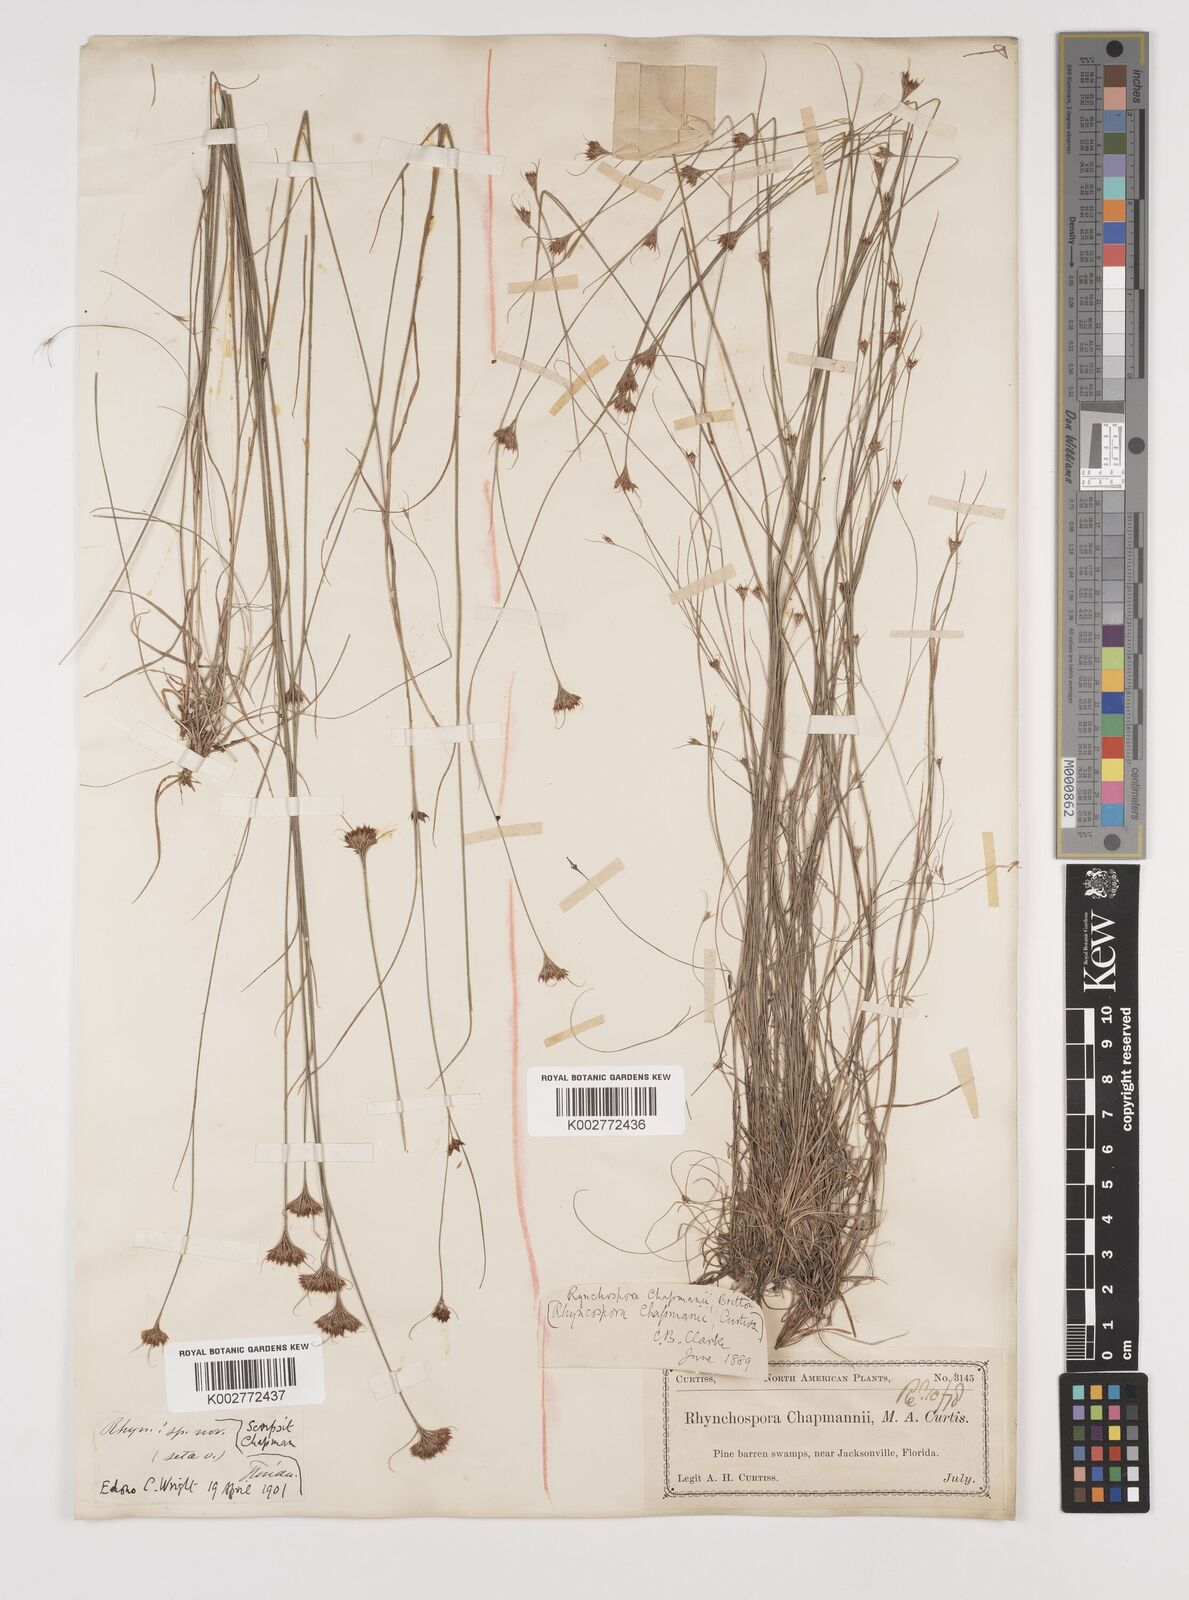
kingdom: Plantae
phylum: Tracheophyta
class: Liliopsida
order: Poales
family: Cyperaceae
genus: Rhynchospora
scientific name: Rhynchospora
